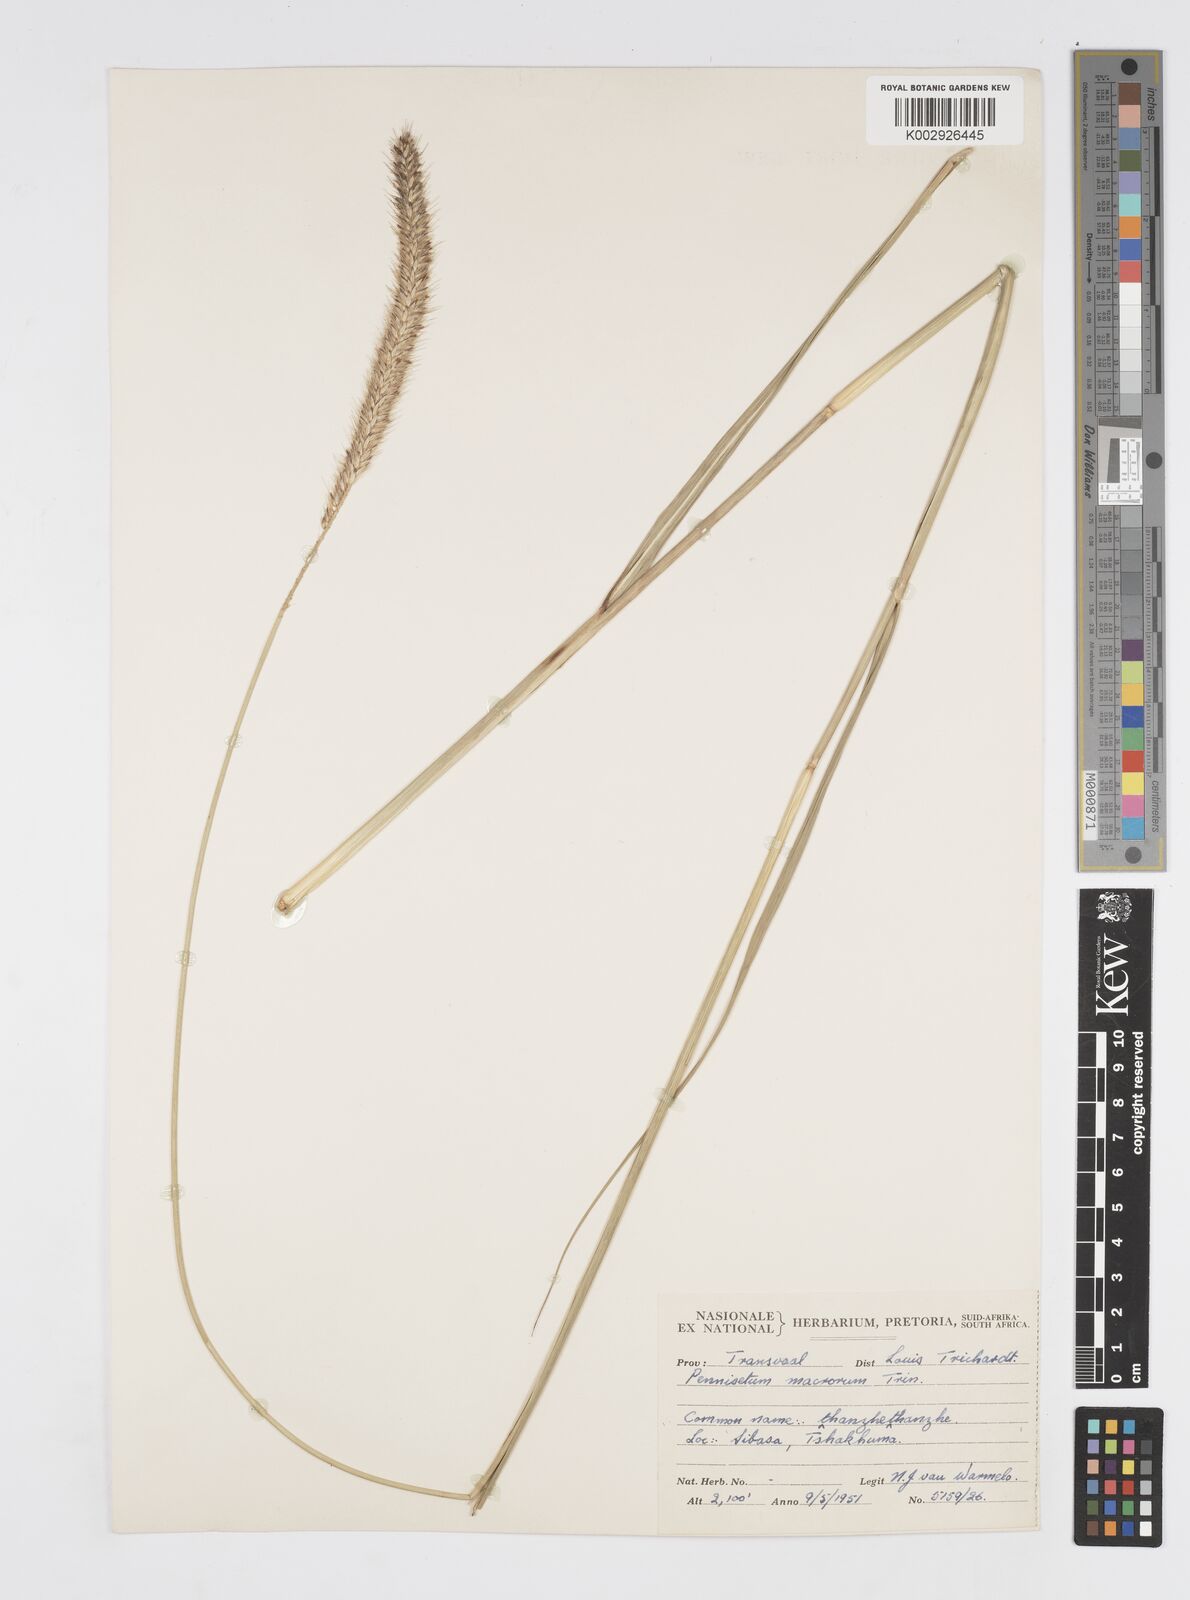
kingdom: Plantae
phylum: Tracheophyta
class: Liliopsida
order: Poales
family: Poaceae
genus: Cenchrus
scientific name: Cenchrus caudatus
